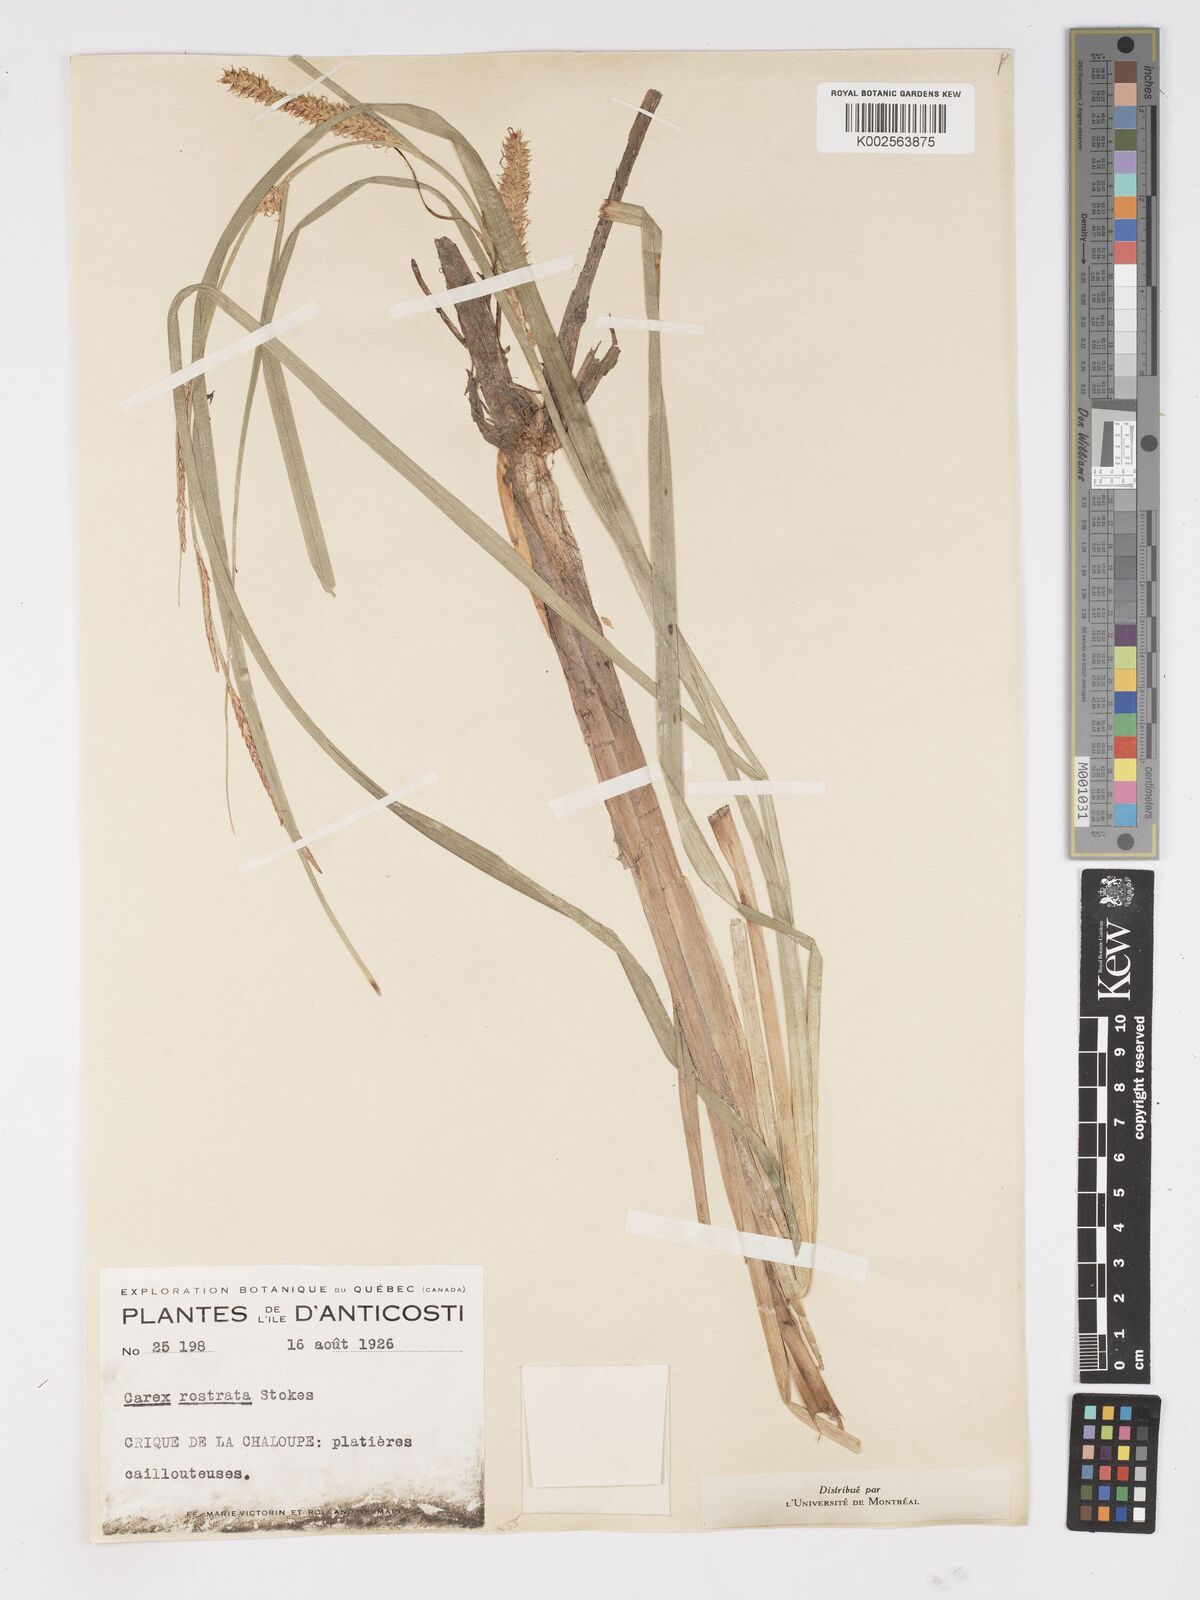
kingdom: Plantae
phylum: Tracheophyta
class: Liliopsida
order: Poales
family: Cyperaceae
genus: Carex
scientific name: Carex rostrata
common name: Bottle sedge
